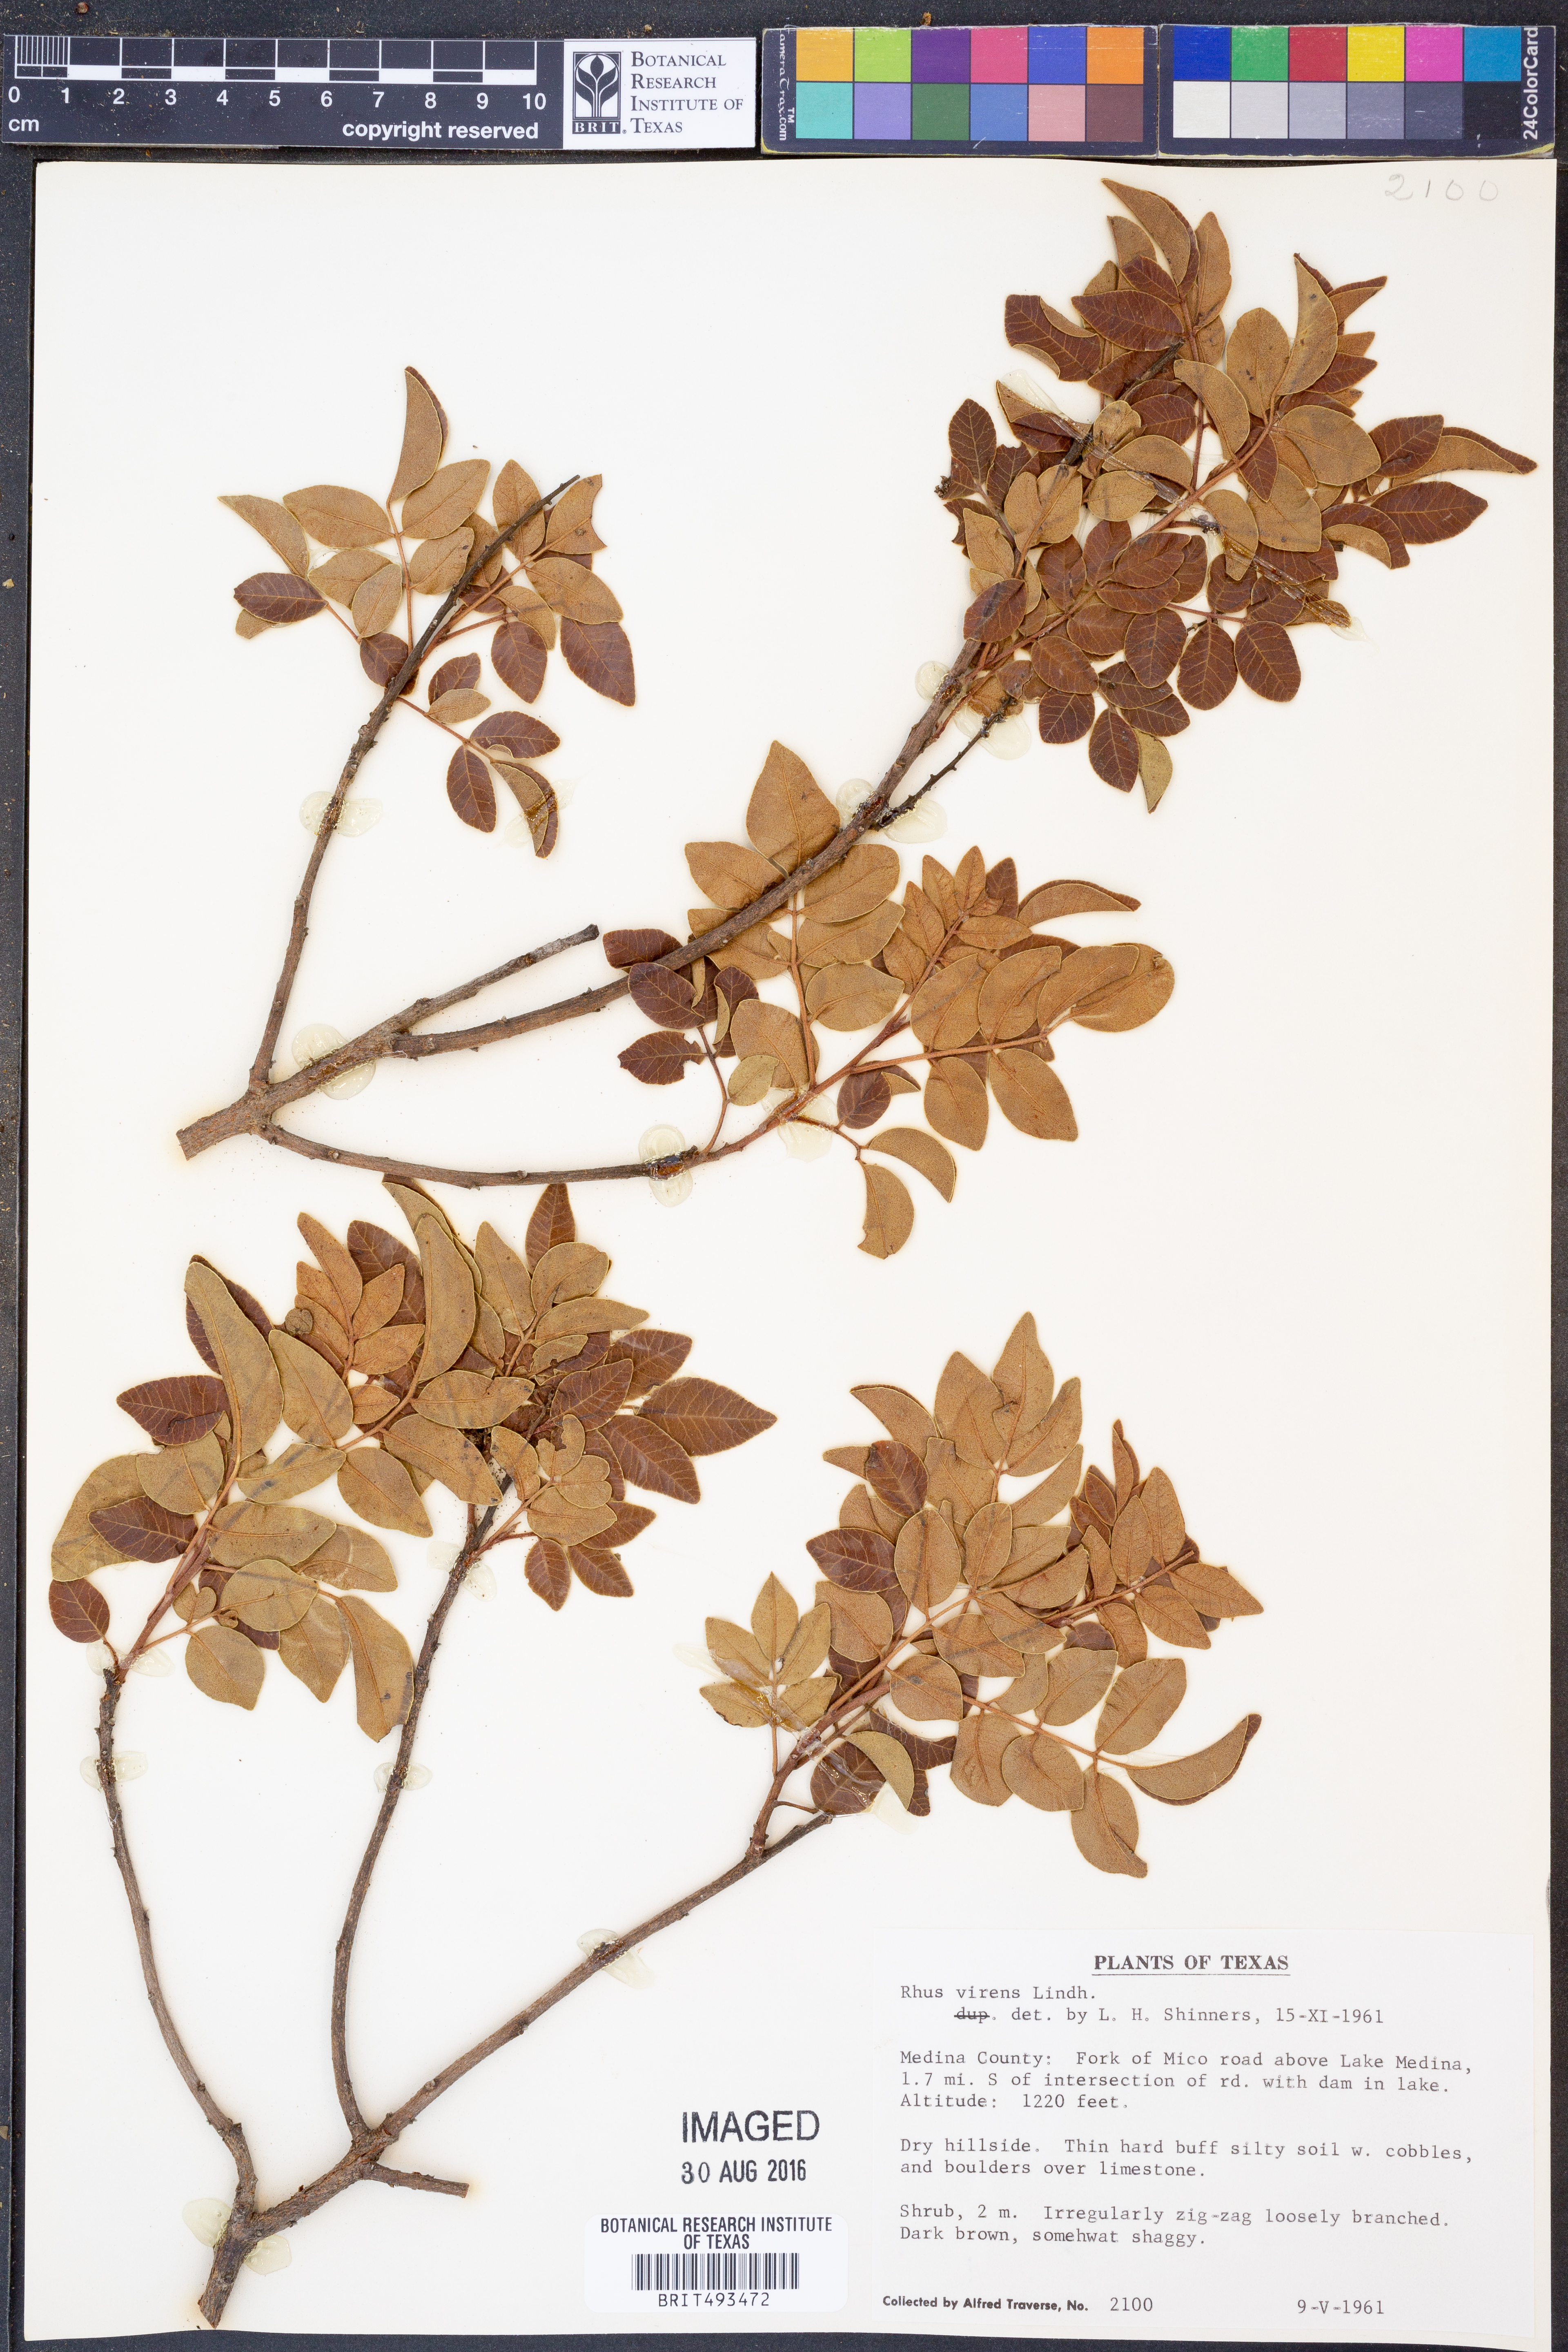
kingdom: Plantae
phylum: Tracheophyta
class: Magnoliopsida
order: Sapindales
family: Anacardiaceae
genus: Rhus
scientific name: Rhus virens
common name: Evergreen sumac
